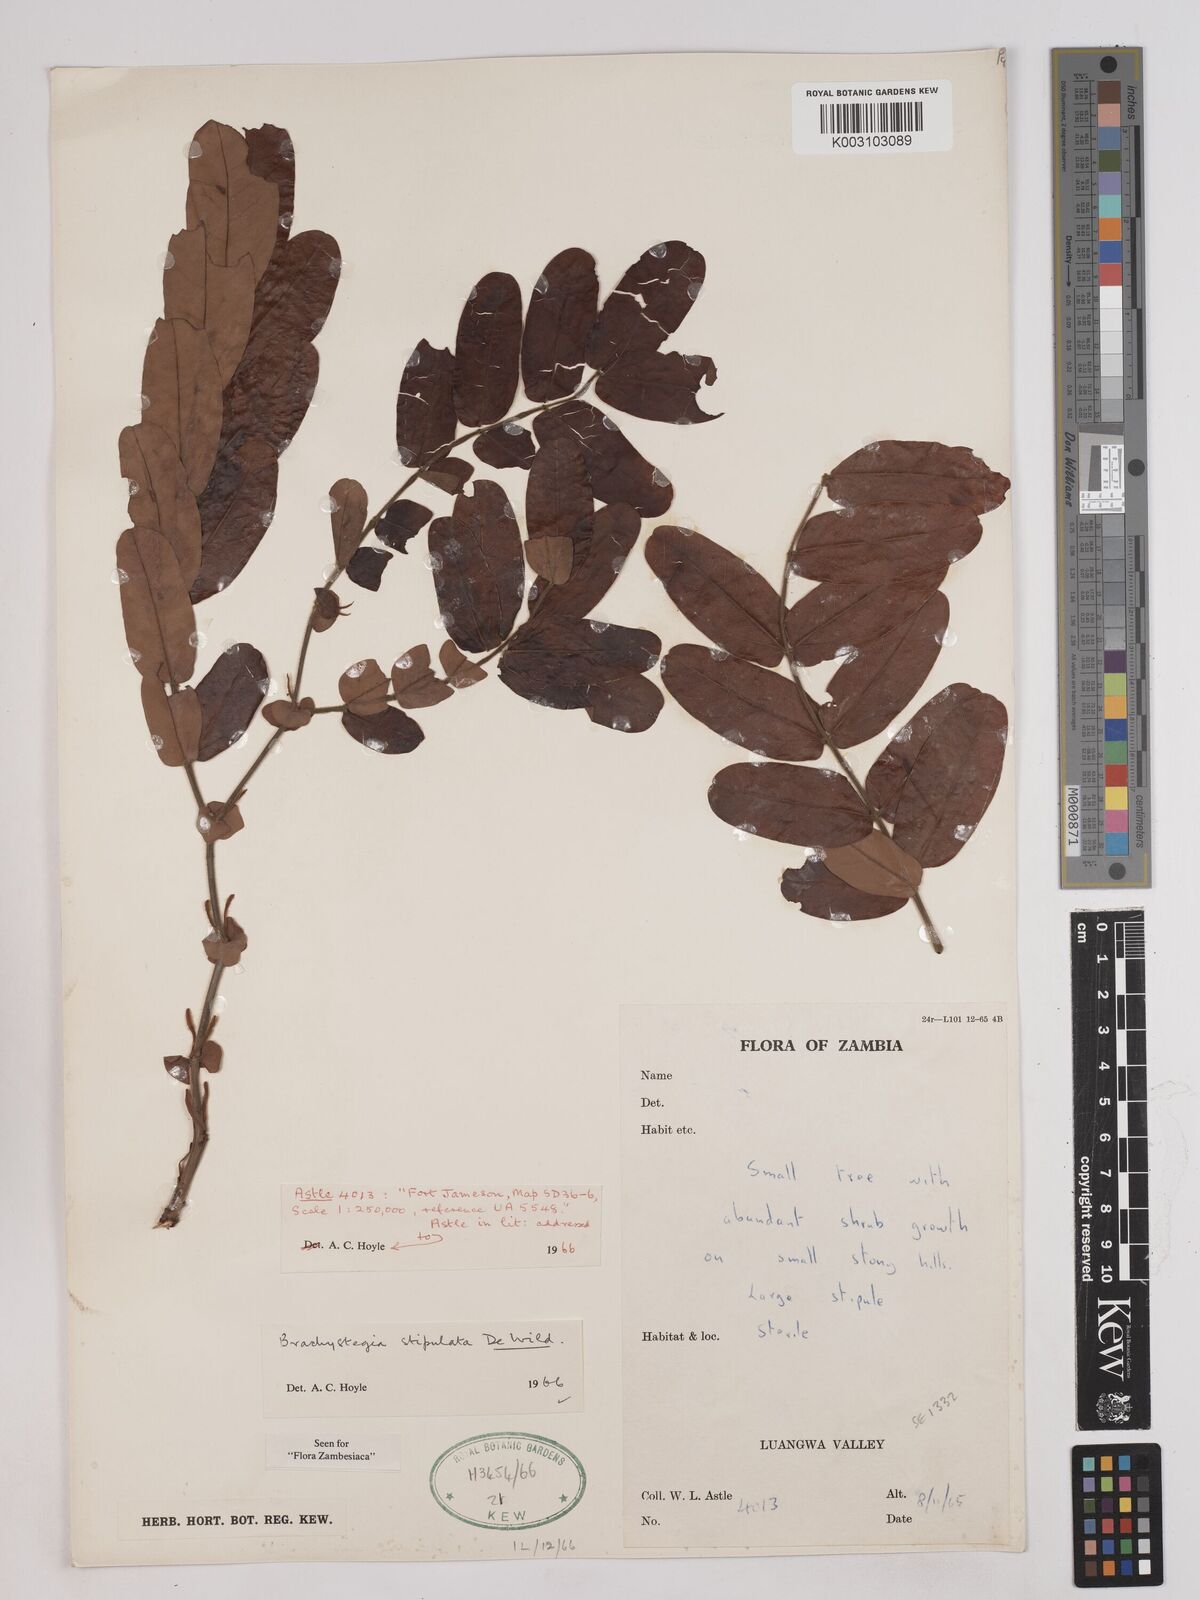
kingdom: Plantae
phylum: Tracheophyta
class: Magnoliopsida
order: Fabales
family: Fabaceae
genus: Brachystegia
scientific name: Brachystegia stipulata
